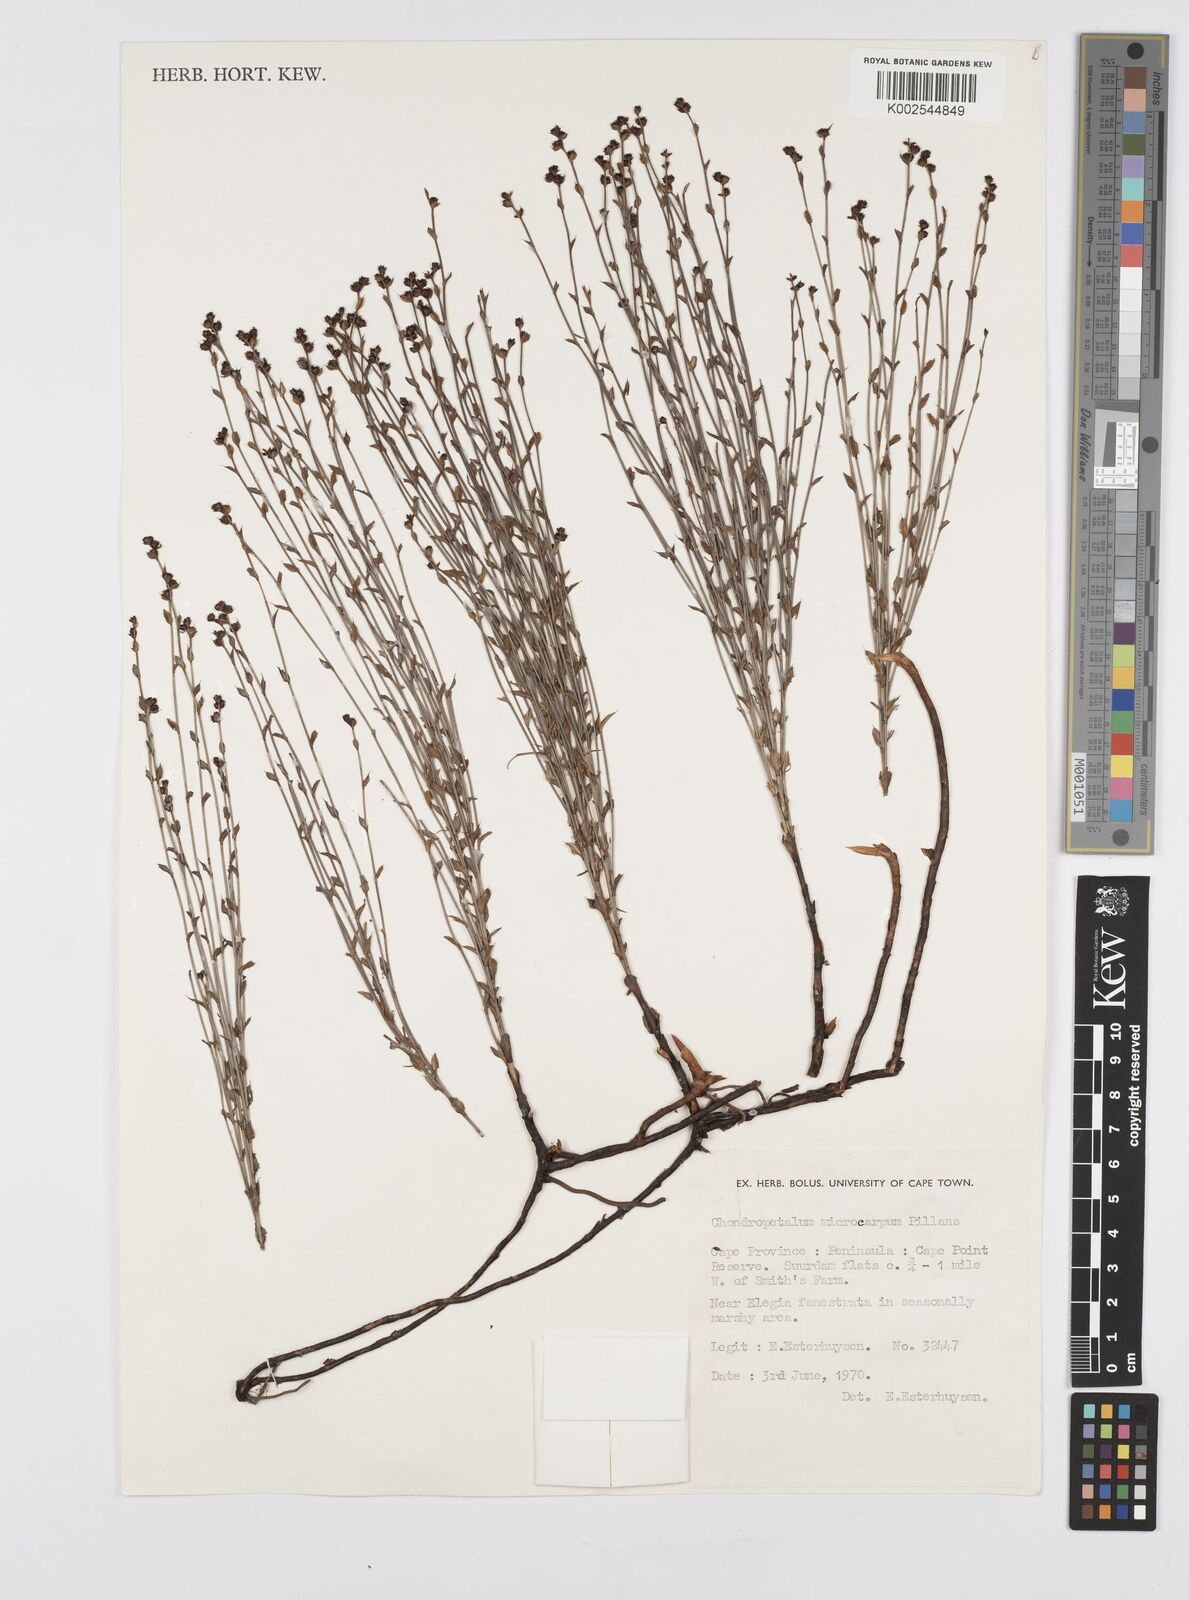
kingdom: Plantae
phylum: Tracheophyta
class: Liliopsida
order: Poales
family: Restionaceae
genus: Elegia
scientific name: Elegia microcarpa
